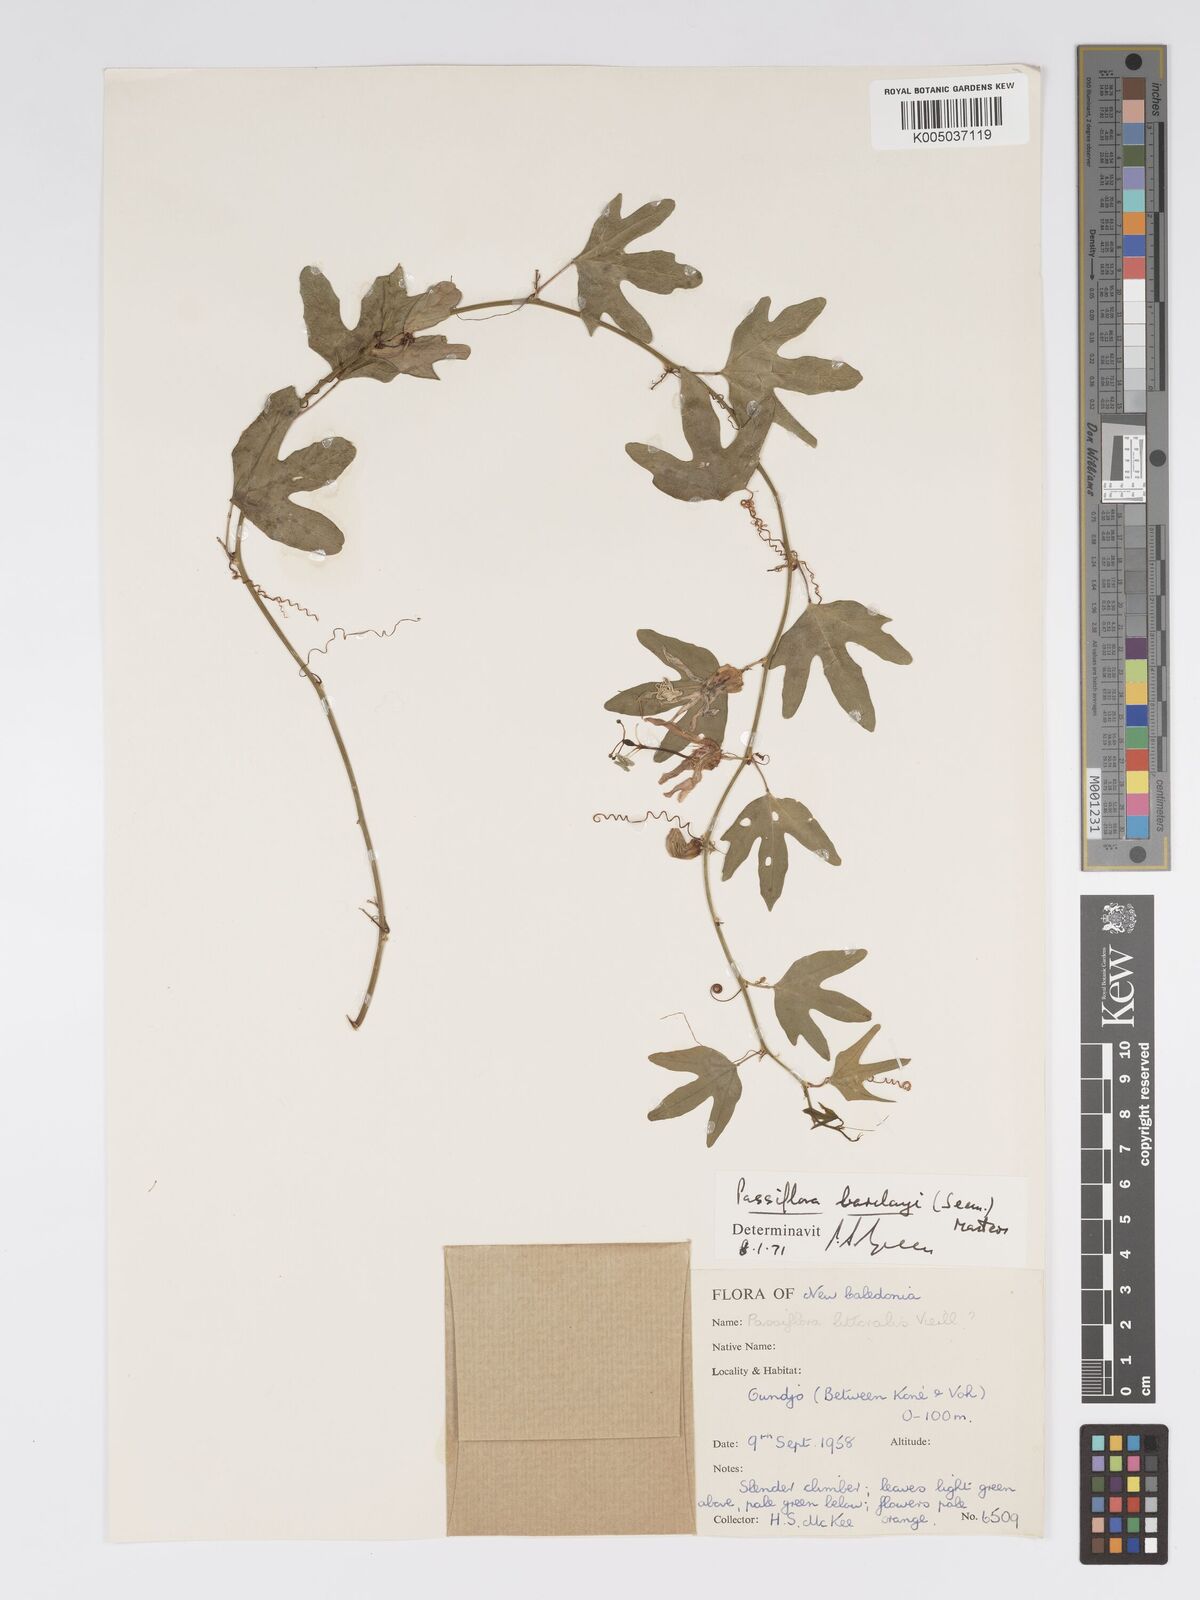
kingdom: Plantae
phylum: Tracheophyta
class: Magnoliopsida
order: Malpighiales
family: Passifloraceae
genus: Passiflora
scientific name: Passiflora barclayi
